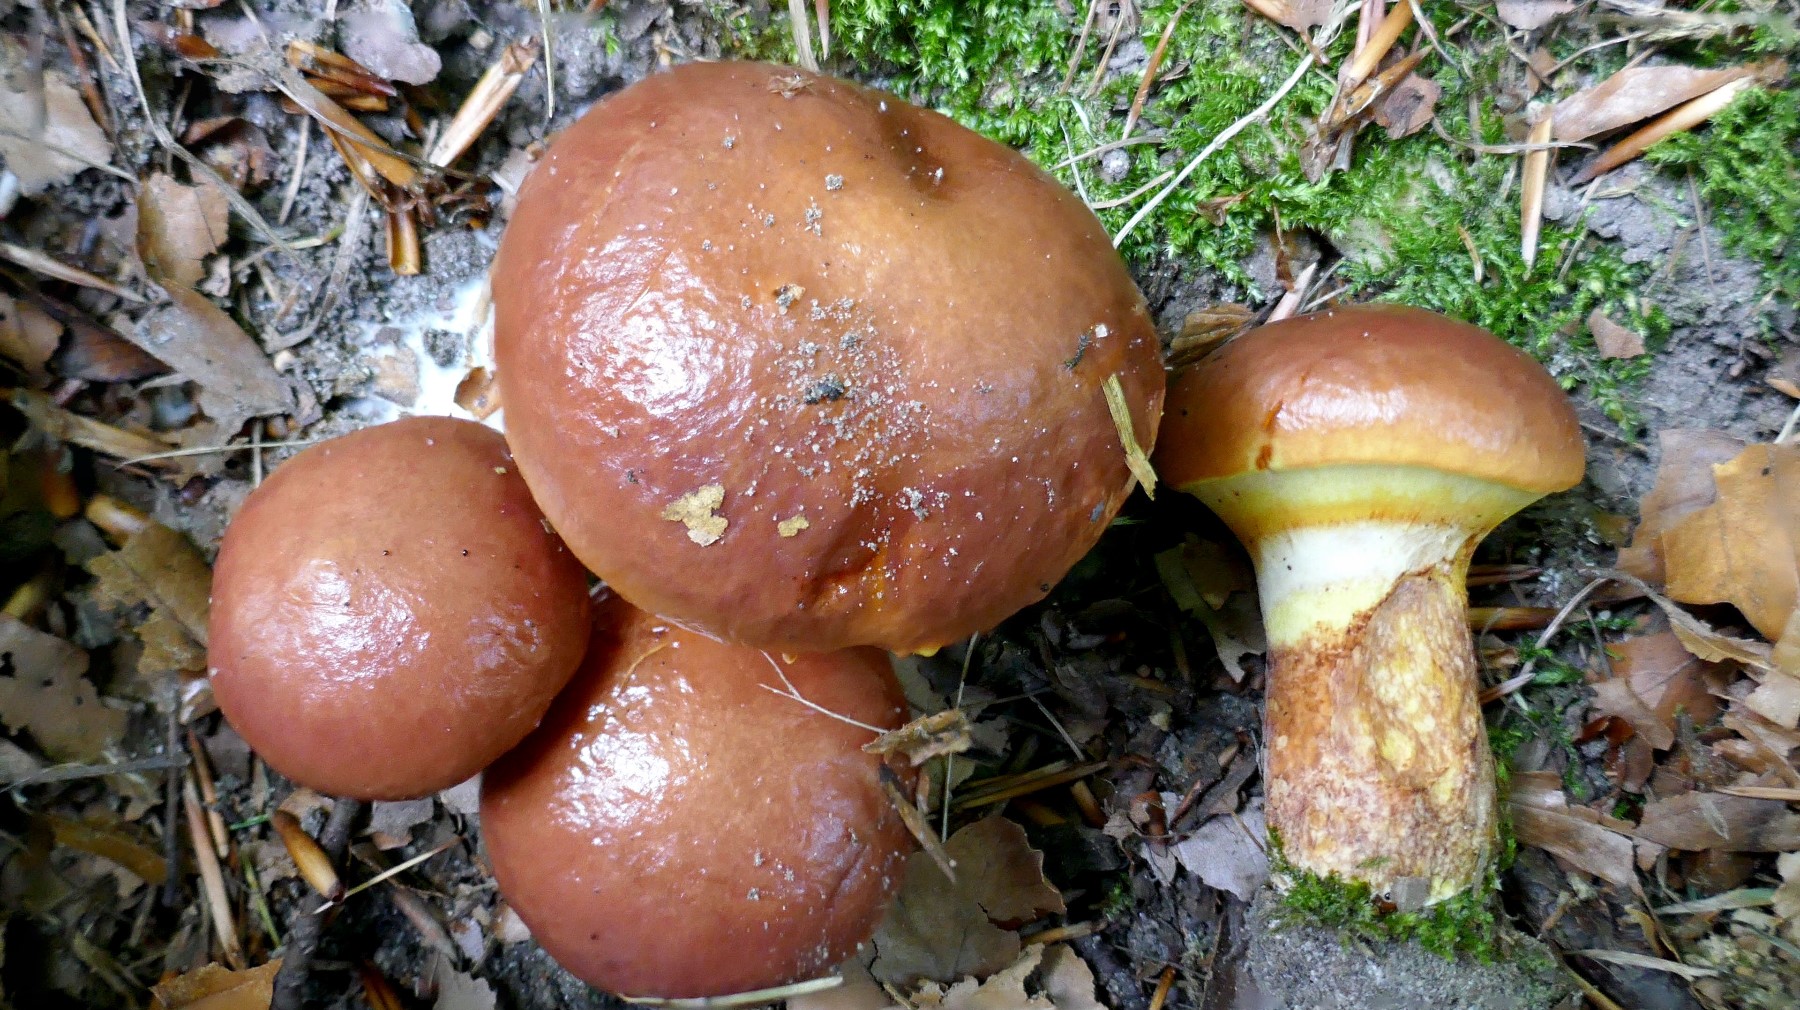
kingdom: Fungi
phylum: Basidiomycota
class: Agaricomycetes
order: Boletales
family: Suillaceae
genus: Suillus
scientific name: Suillus grevillei
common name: lærke-slimrørhat
